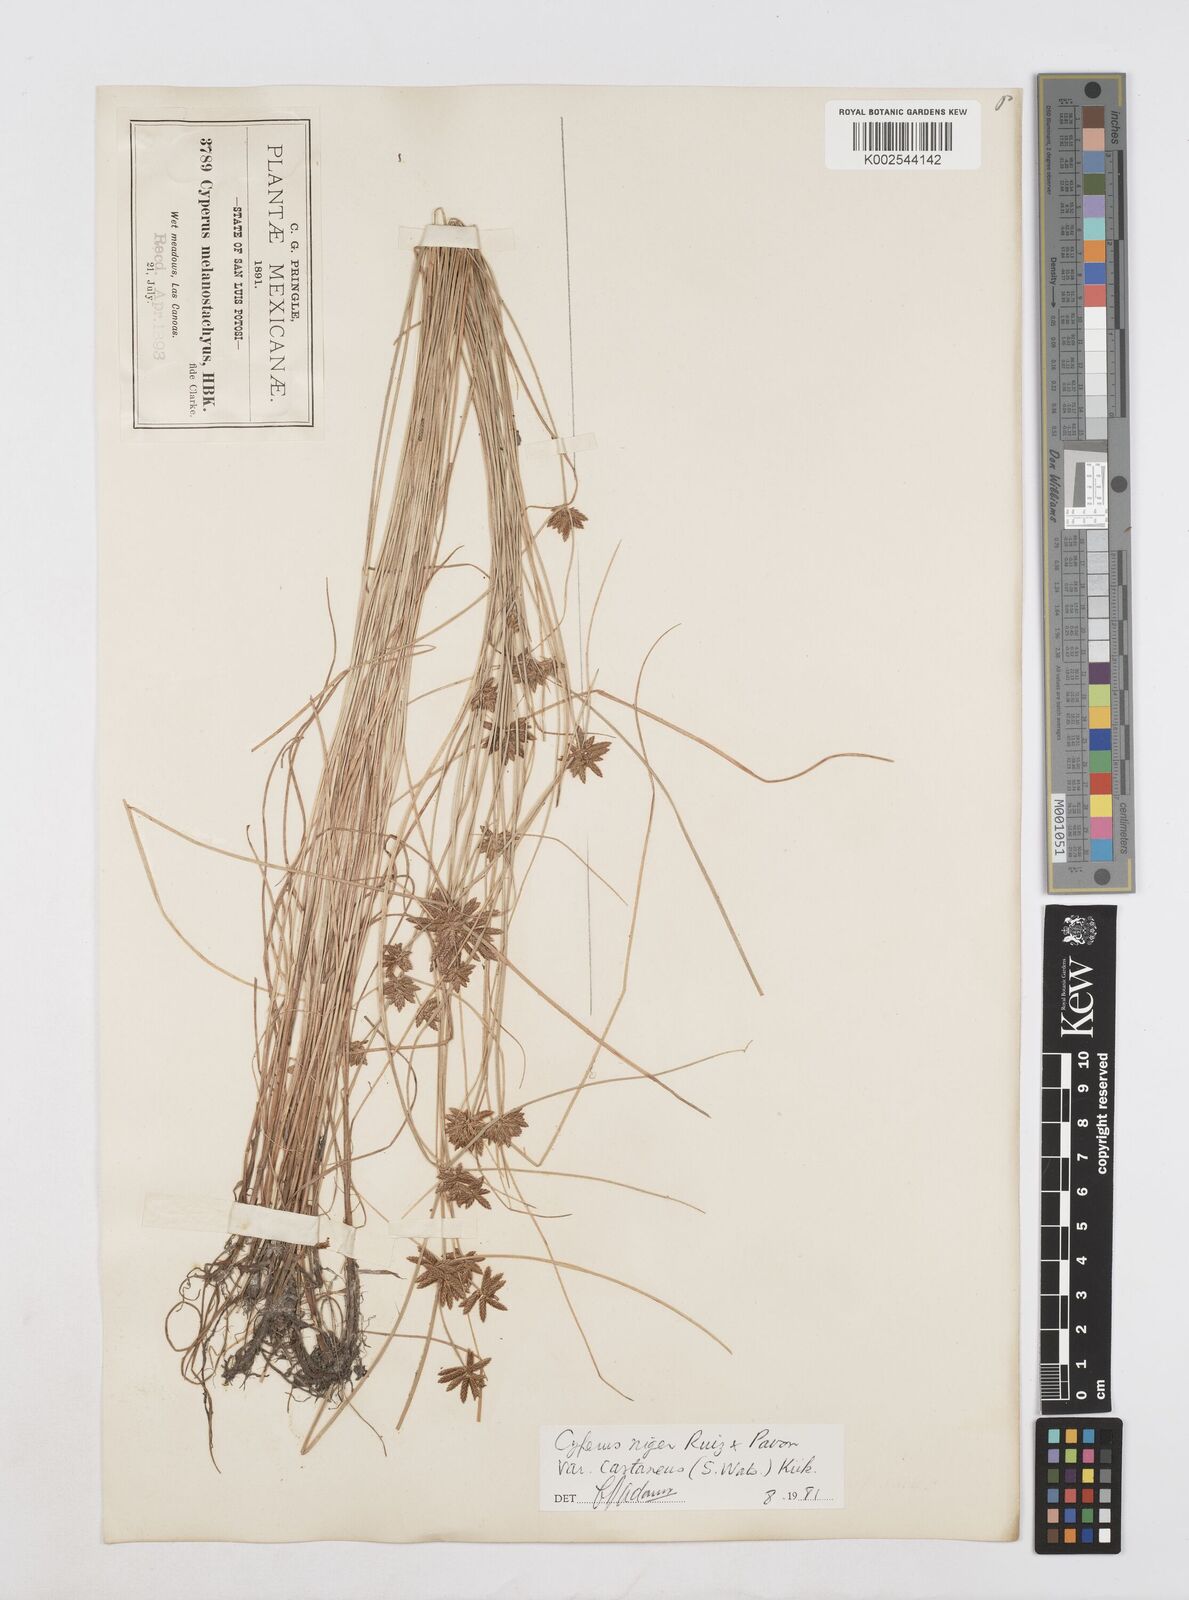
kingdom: Plantae
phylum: Tracheophyta
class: Liliopsida
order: Poales
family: Cyperaceae
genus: Cyperus
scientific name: Cyperus melanostachyus
